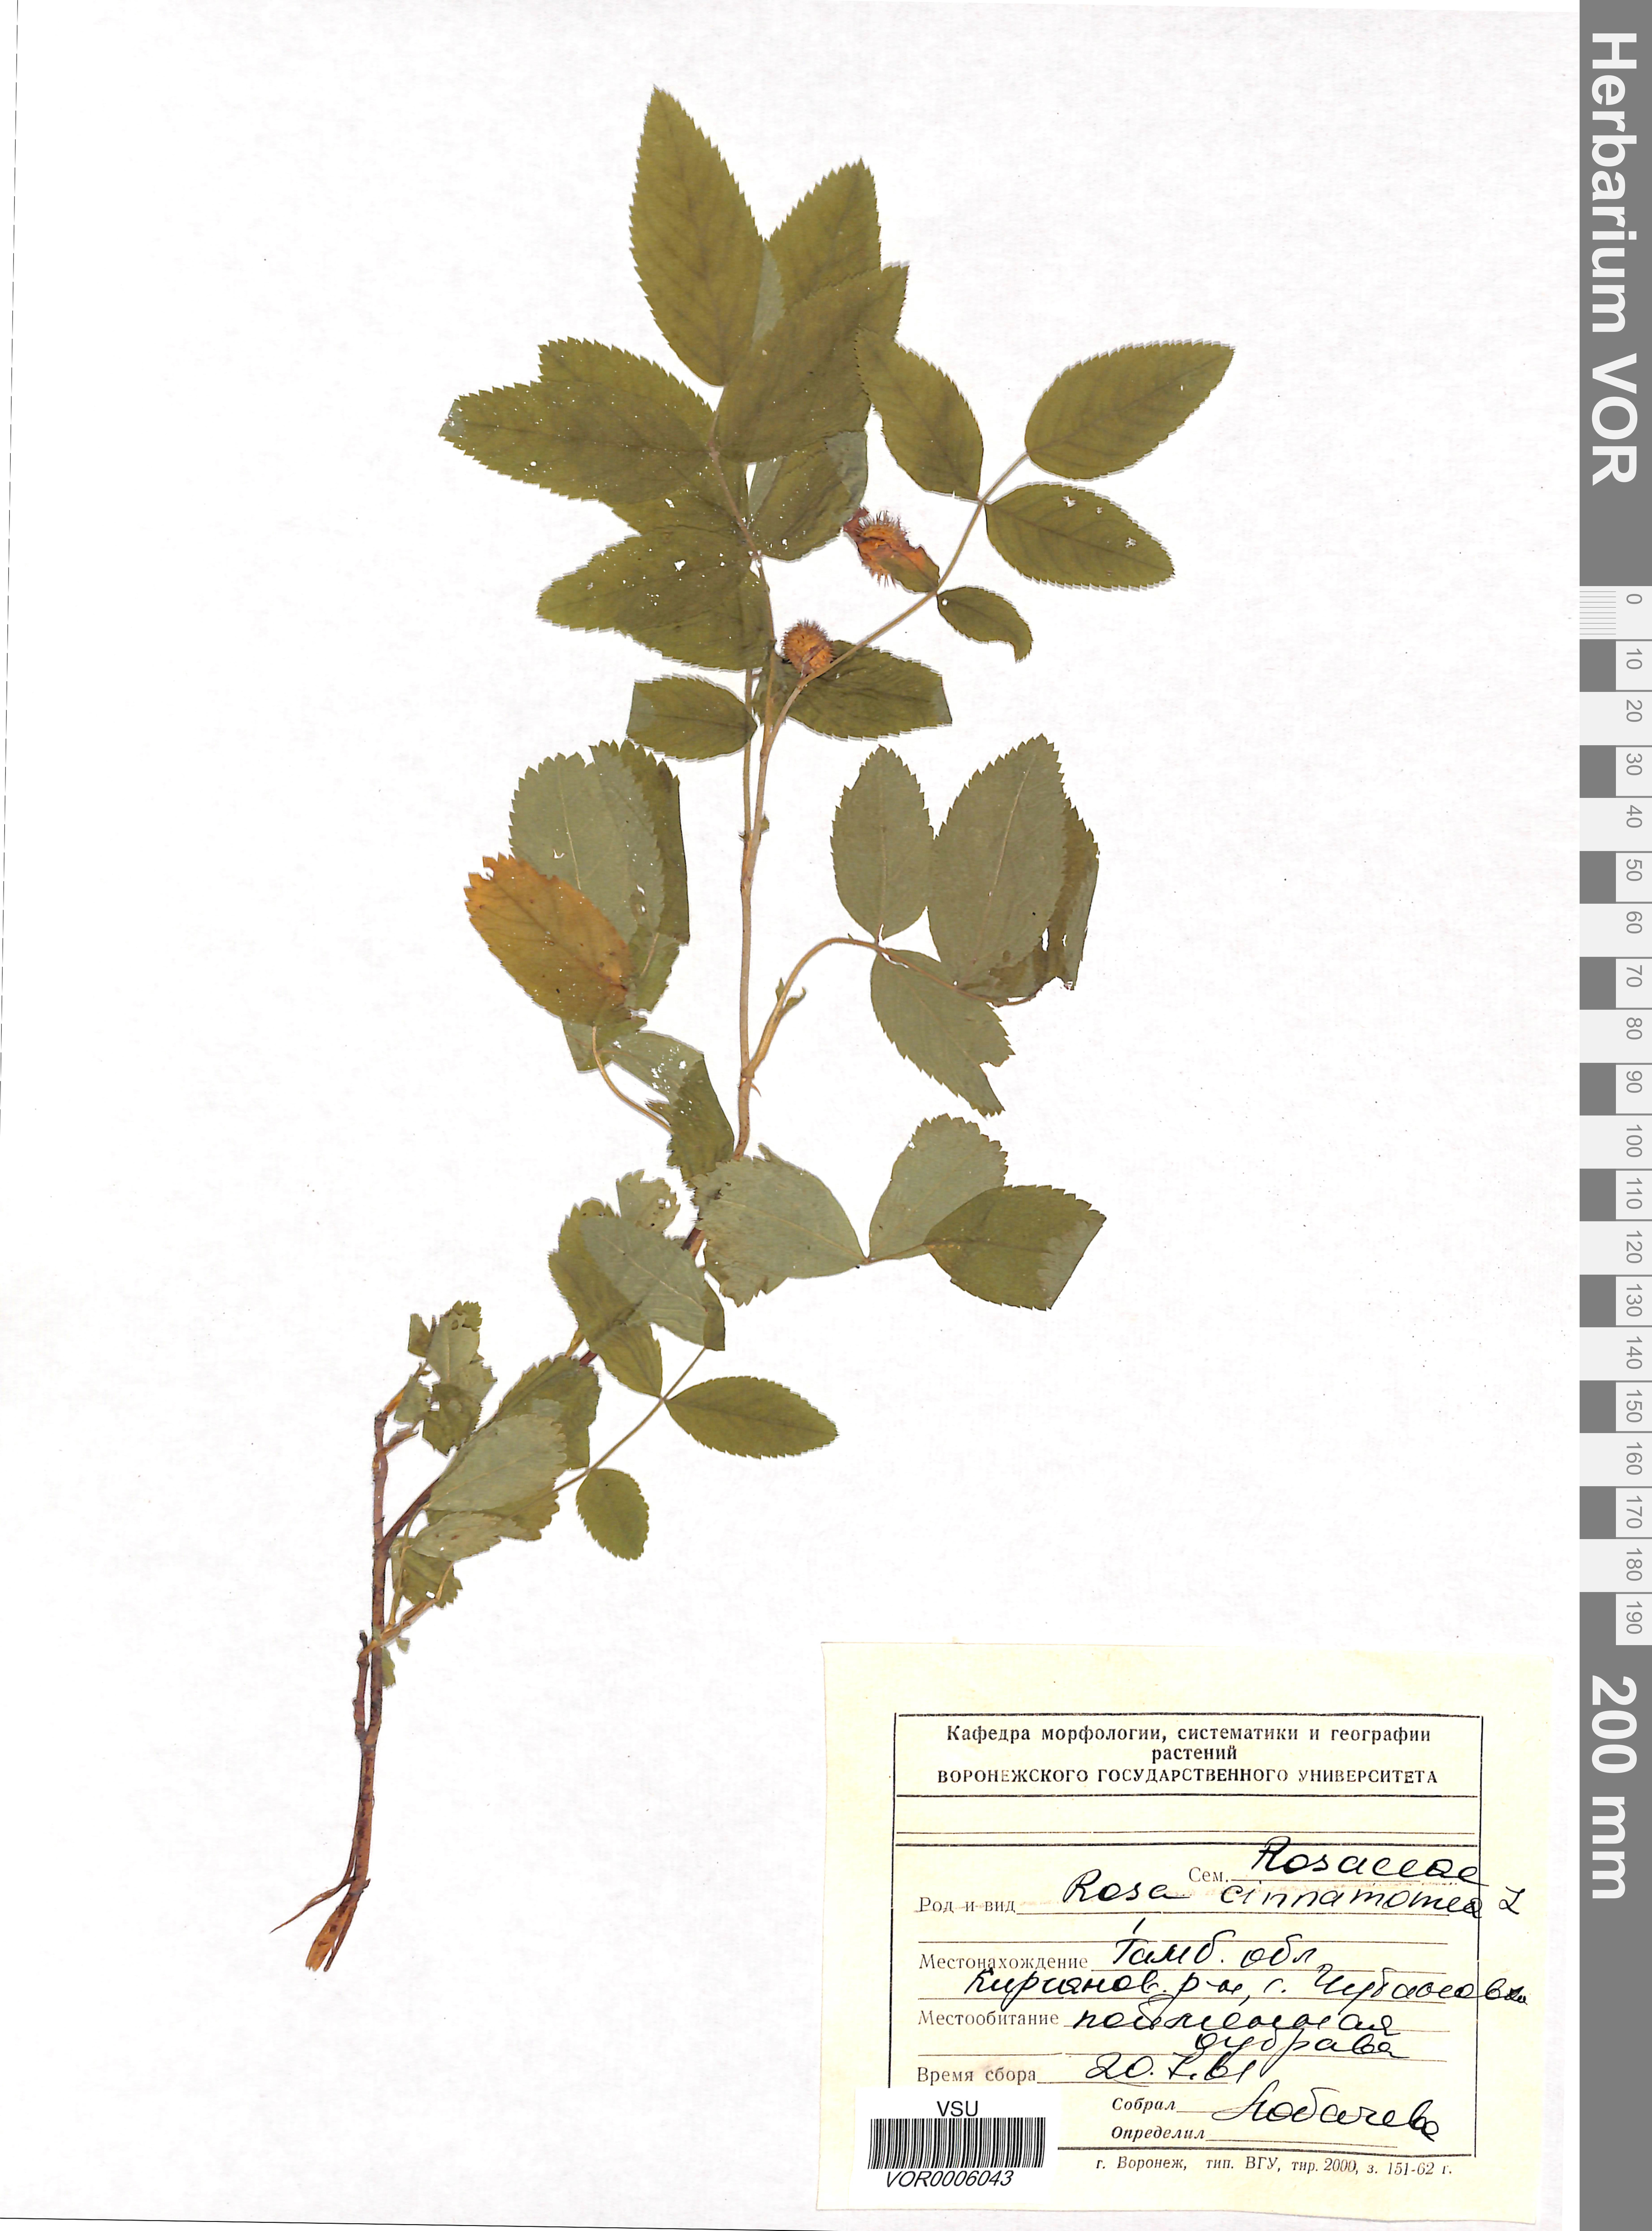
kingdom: Plantae
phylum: Tracheophyta
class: Magnoliopsida
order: Rosales
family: Rosaceae
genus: Rosa
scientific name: Rosa majalis
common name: Cinnamon rose
